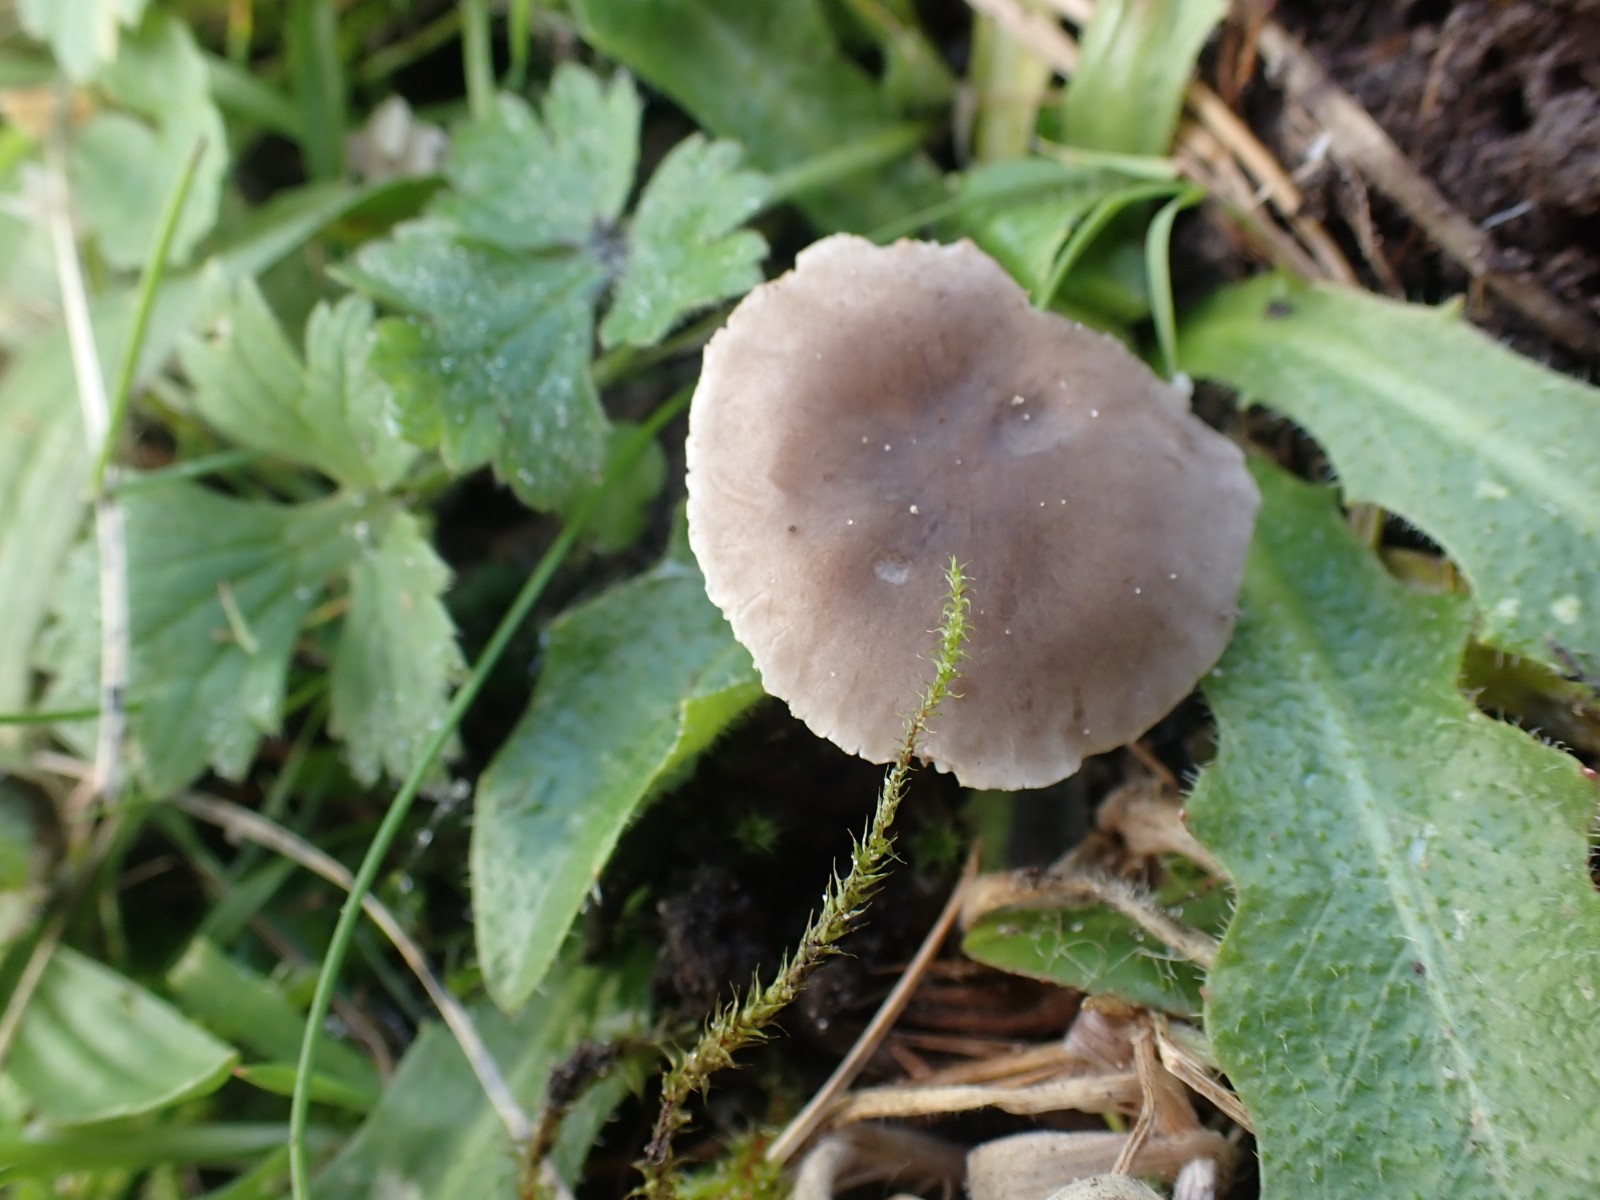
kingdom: Fungi
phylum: Basidiomycota
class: Agaricomycetes
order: Agaricales
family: Tricholomataceae
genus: Dermoloma
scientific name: Dermoloma cuneifolium
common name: eng-nonnehat
